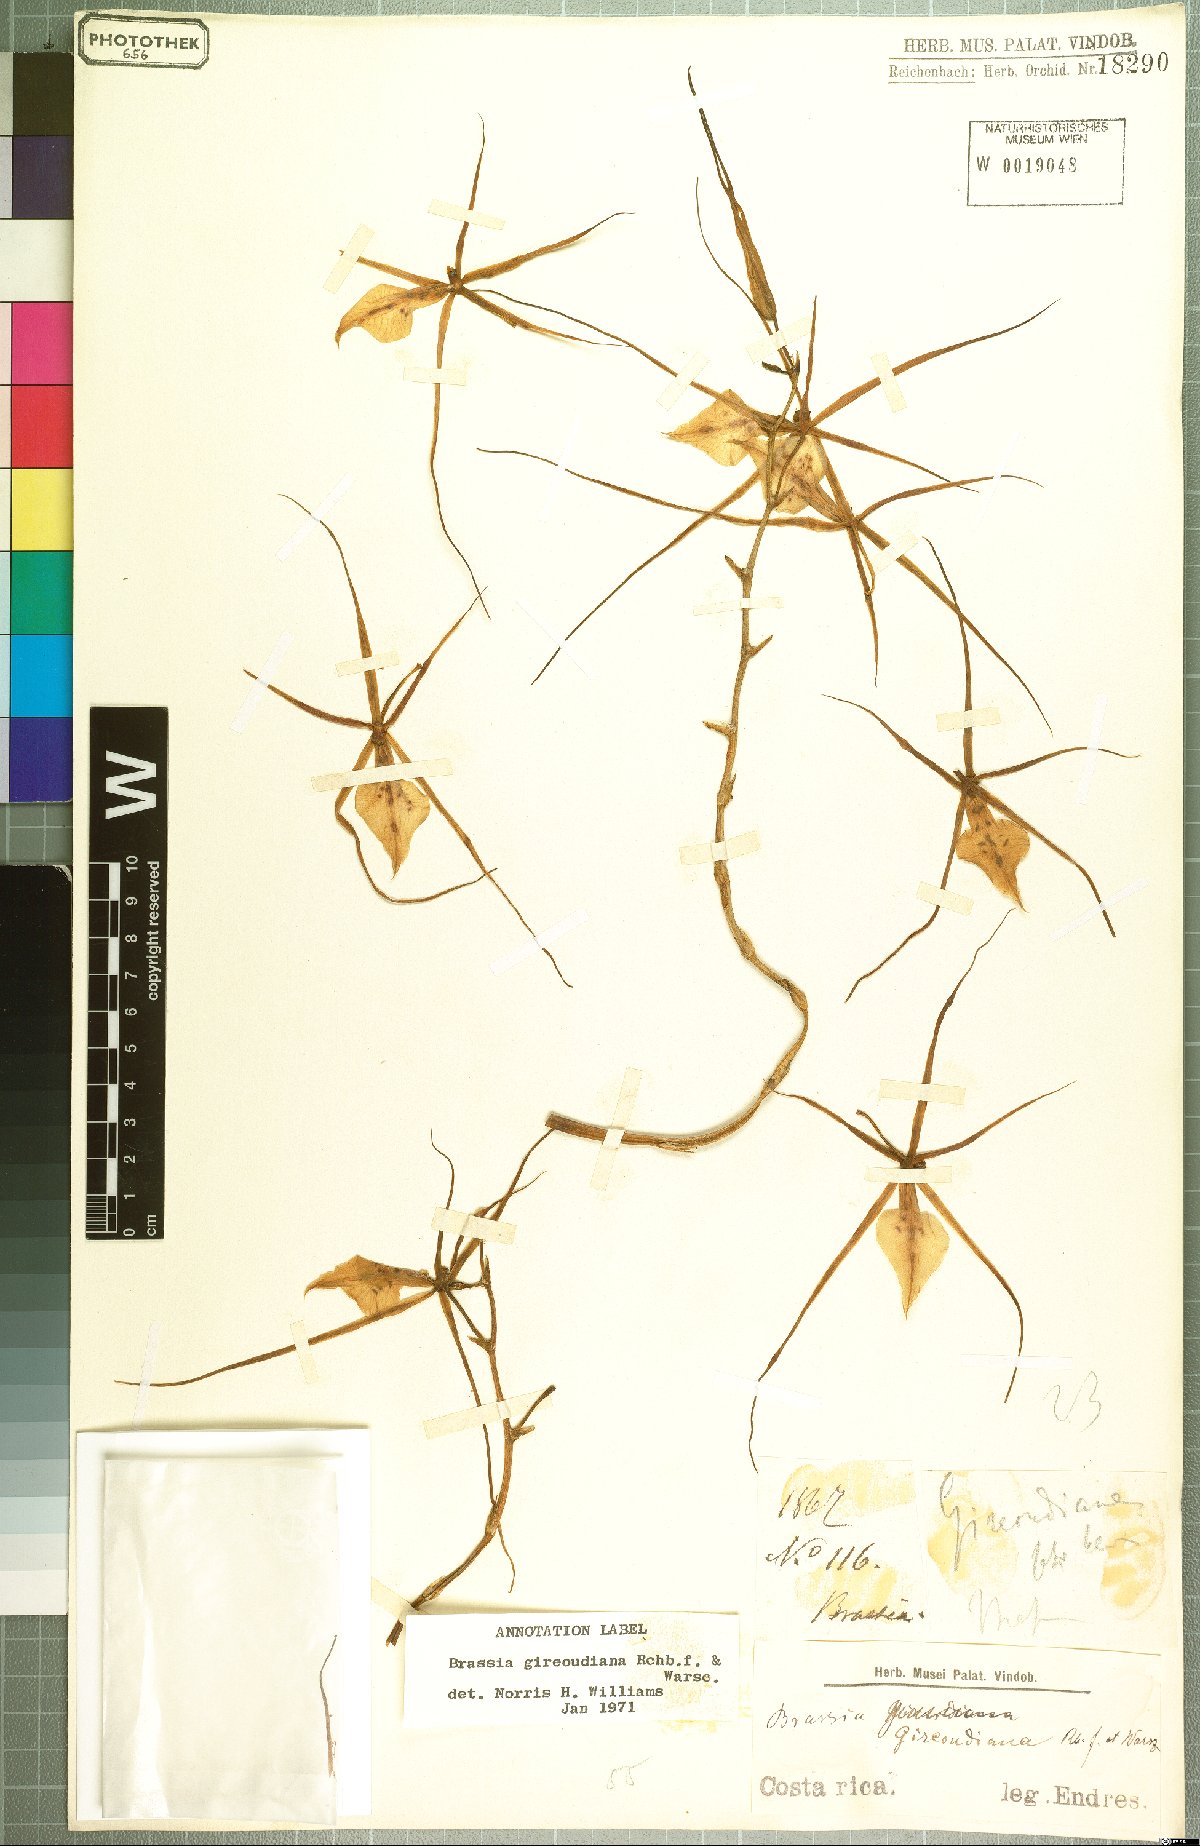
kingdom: Plantae
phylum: Tracheophyta
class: Liliopsida
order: Asparagales
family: Orchidaceae
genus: Brassia
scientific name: Brassia gireoudiana
